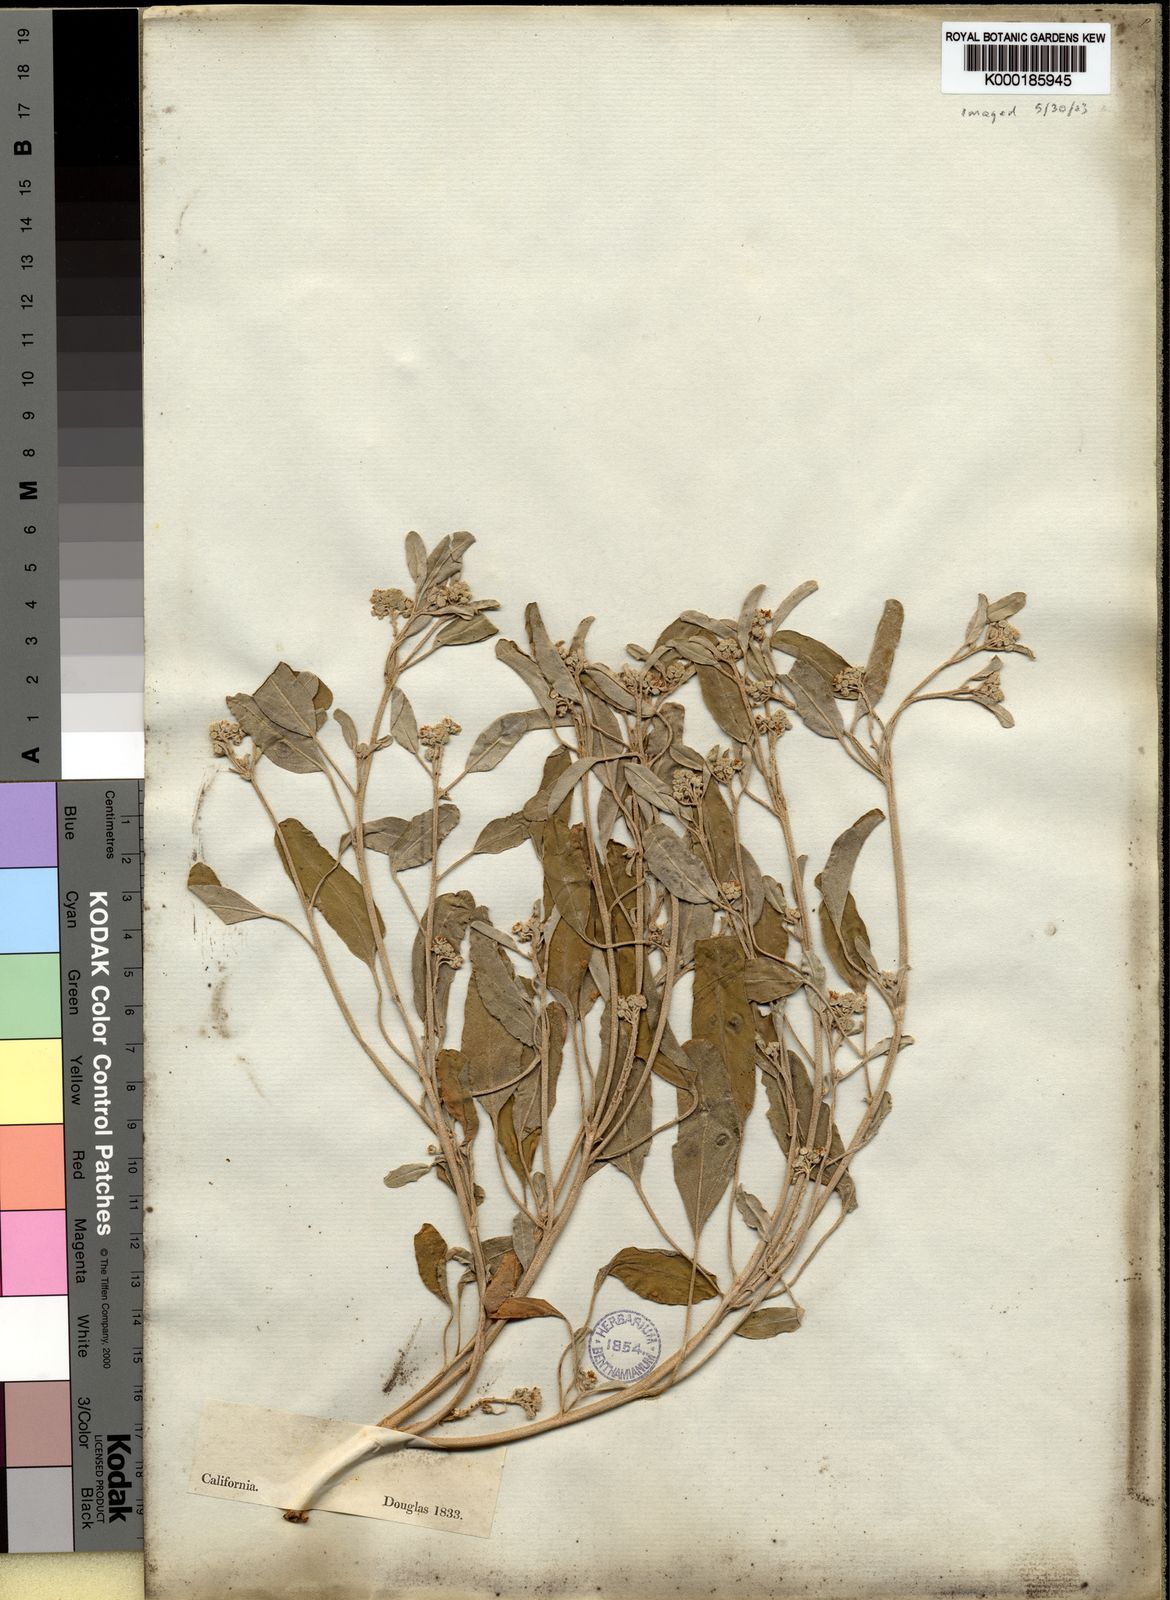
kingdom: Plantae
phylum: Tracheophyta
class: Magnoliopsida
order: Malpighiales
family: Euphorbiaceae
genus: Croton
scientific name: Croton
